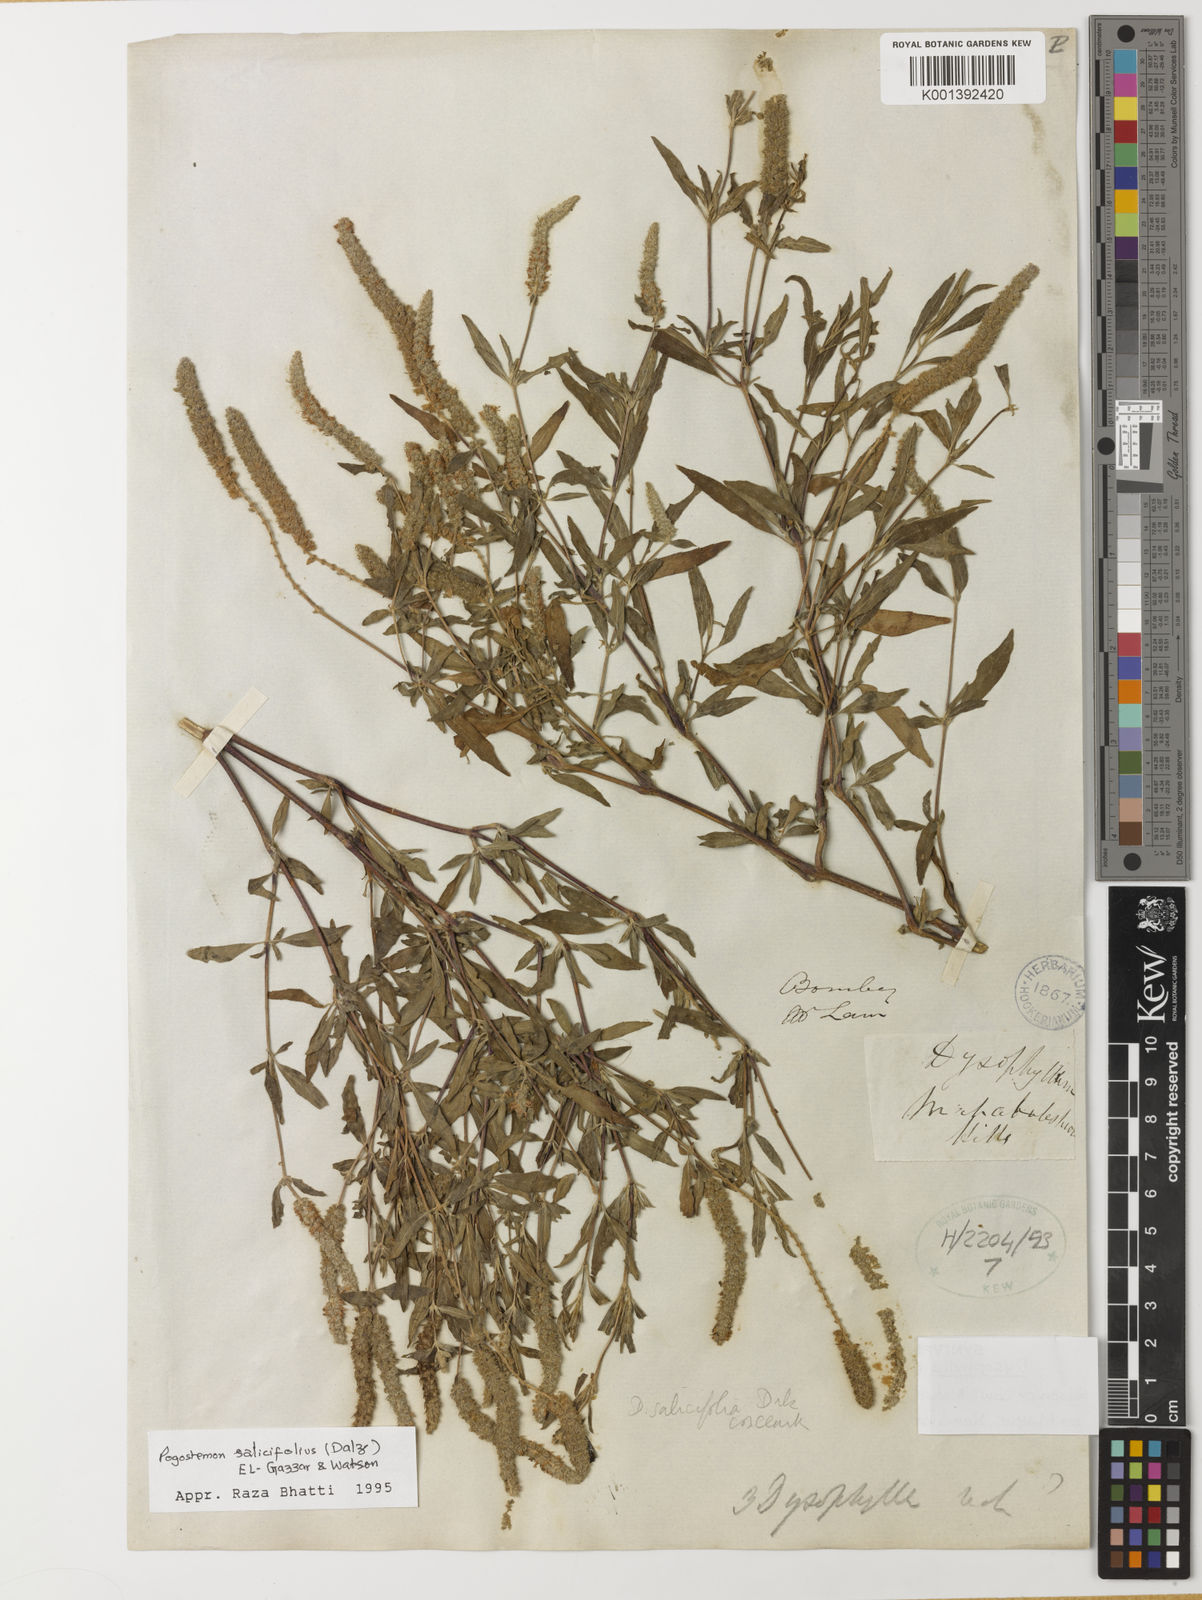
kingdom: Plantae
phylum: Tracheophyta
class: Magnoliopsida
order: Lamiales
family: Lamiaceae
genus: Pogostemon
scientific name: Pogostemon salicifolius
